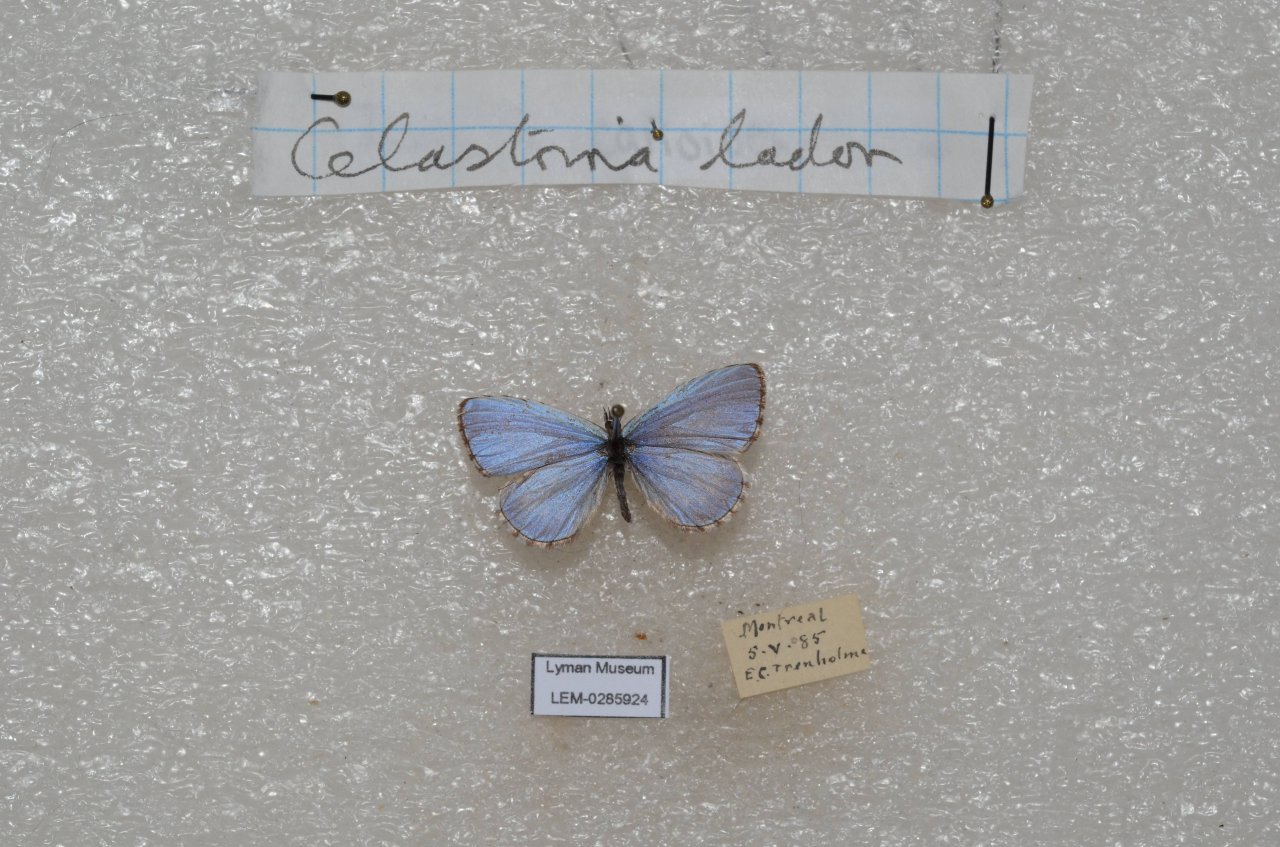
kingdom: Animalia
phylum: Arthropoda
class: Insecta
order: Lepidoptera
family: Lycaenidae
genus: Celastrina
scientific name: Celastrina lucia
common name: Northern Spring Azure
